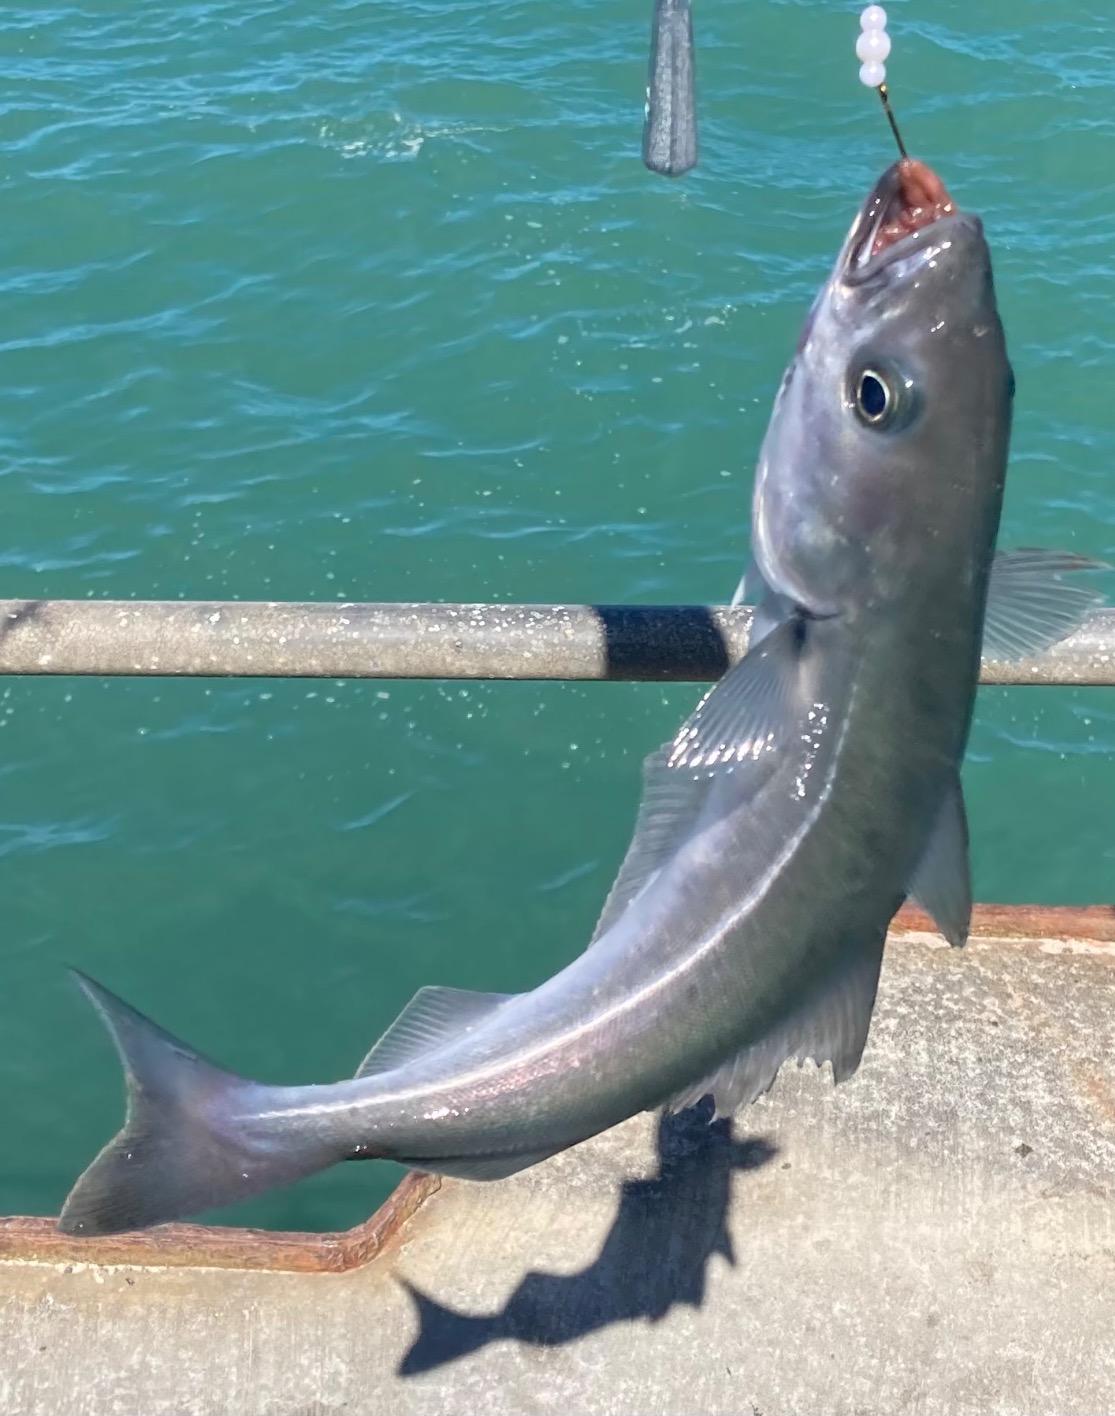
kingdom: Animalia
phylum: Chordata
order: Gadiformes
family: Gadidae
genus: Pollachius
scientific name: Pollachius virens
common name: Sej
